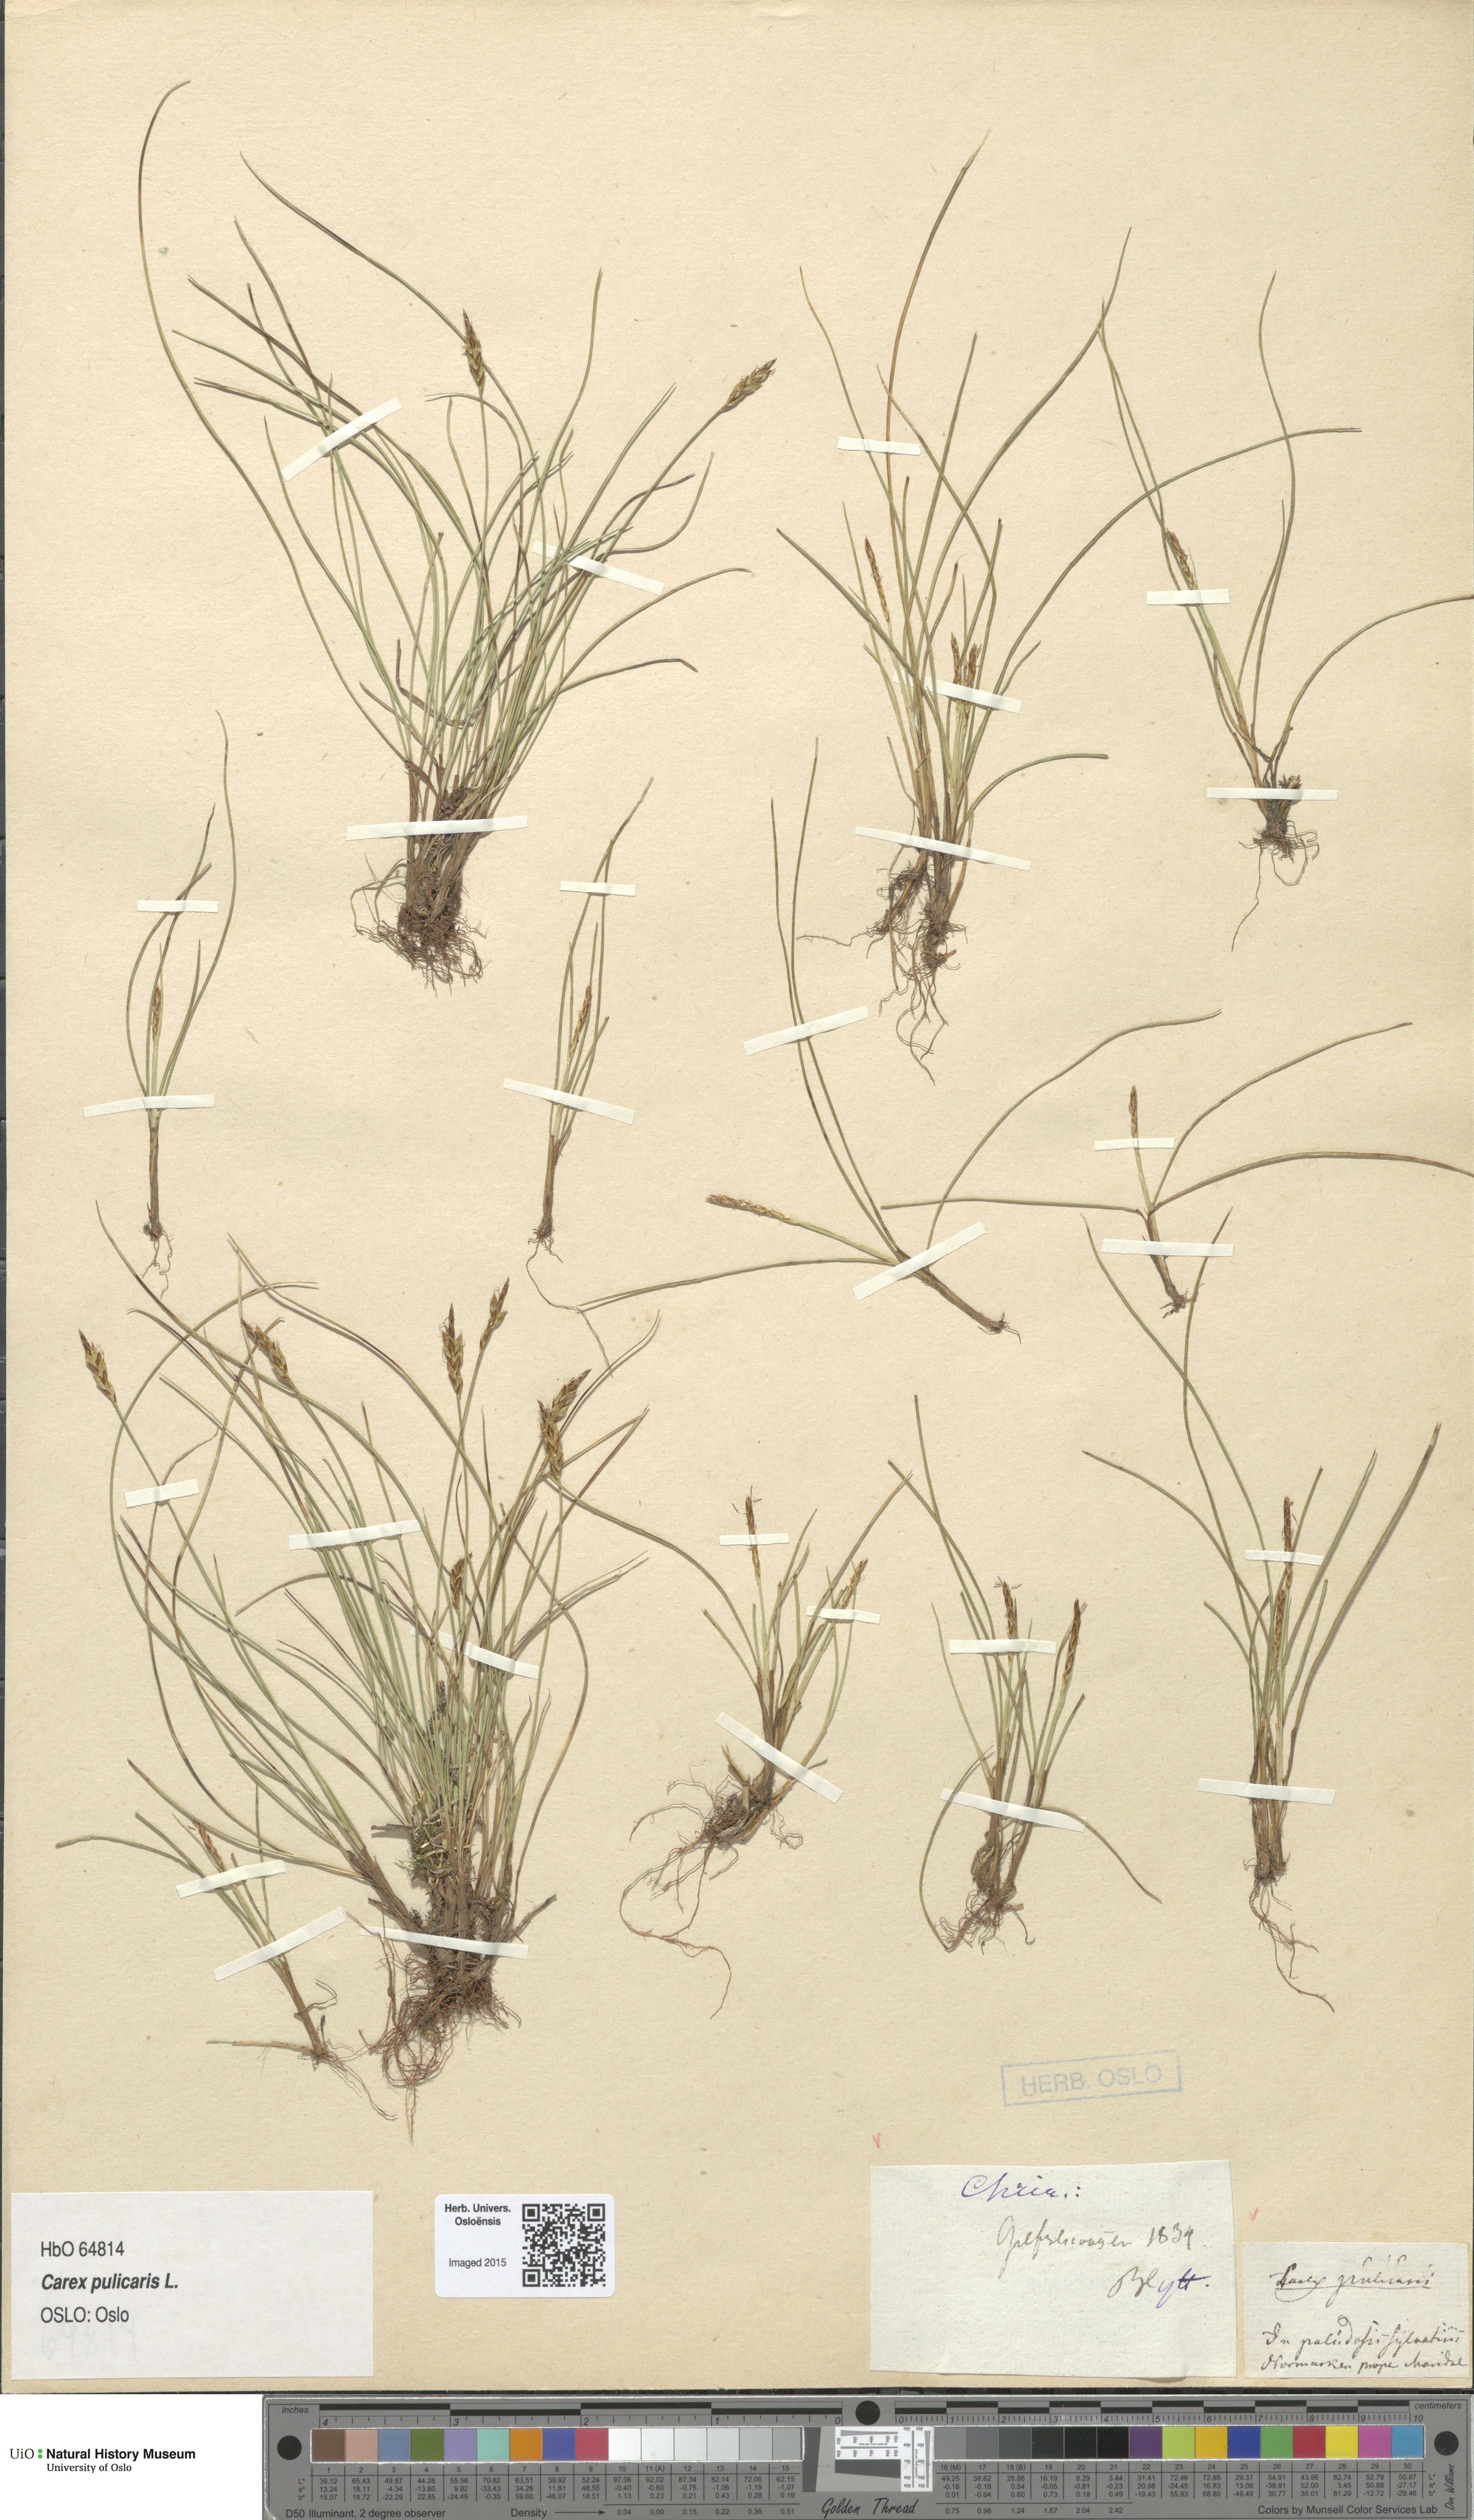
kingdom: Plantae
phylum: Tracheophyta
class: Liliopsida
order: Poales
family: Cyperaceae
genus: Carex
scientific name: Carex pulicaris
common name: Flea sedge
